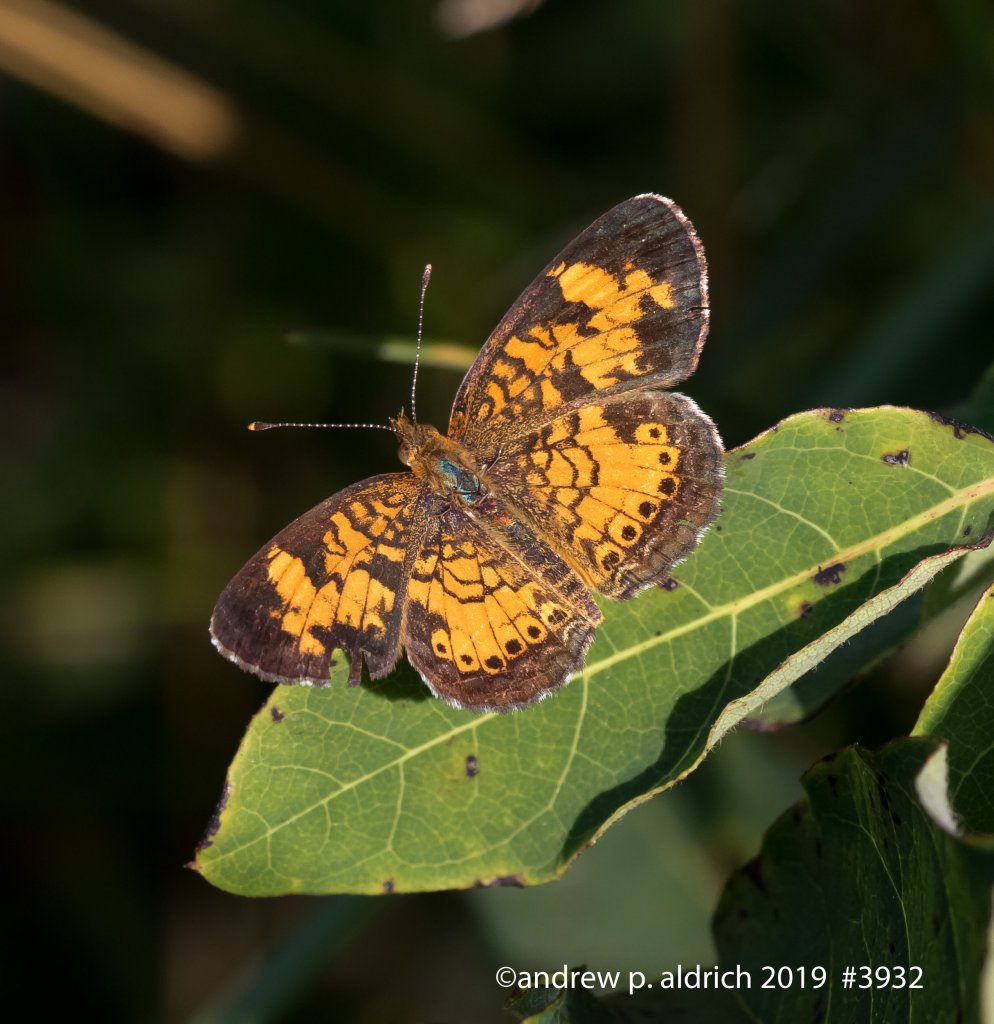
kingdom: Animalia
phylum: Arthropoda
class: Insecta
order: Lepidoptera
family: Nymphalidae
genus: Phyciodes
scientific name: Phyciodes
